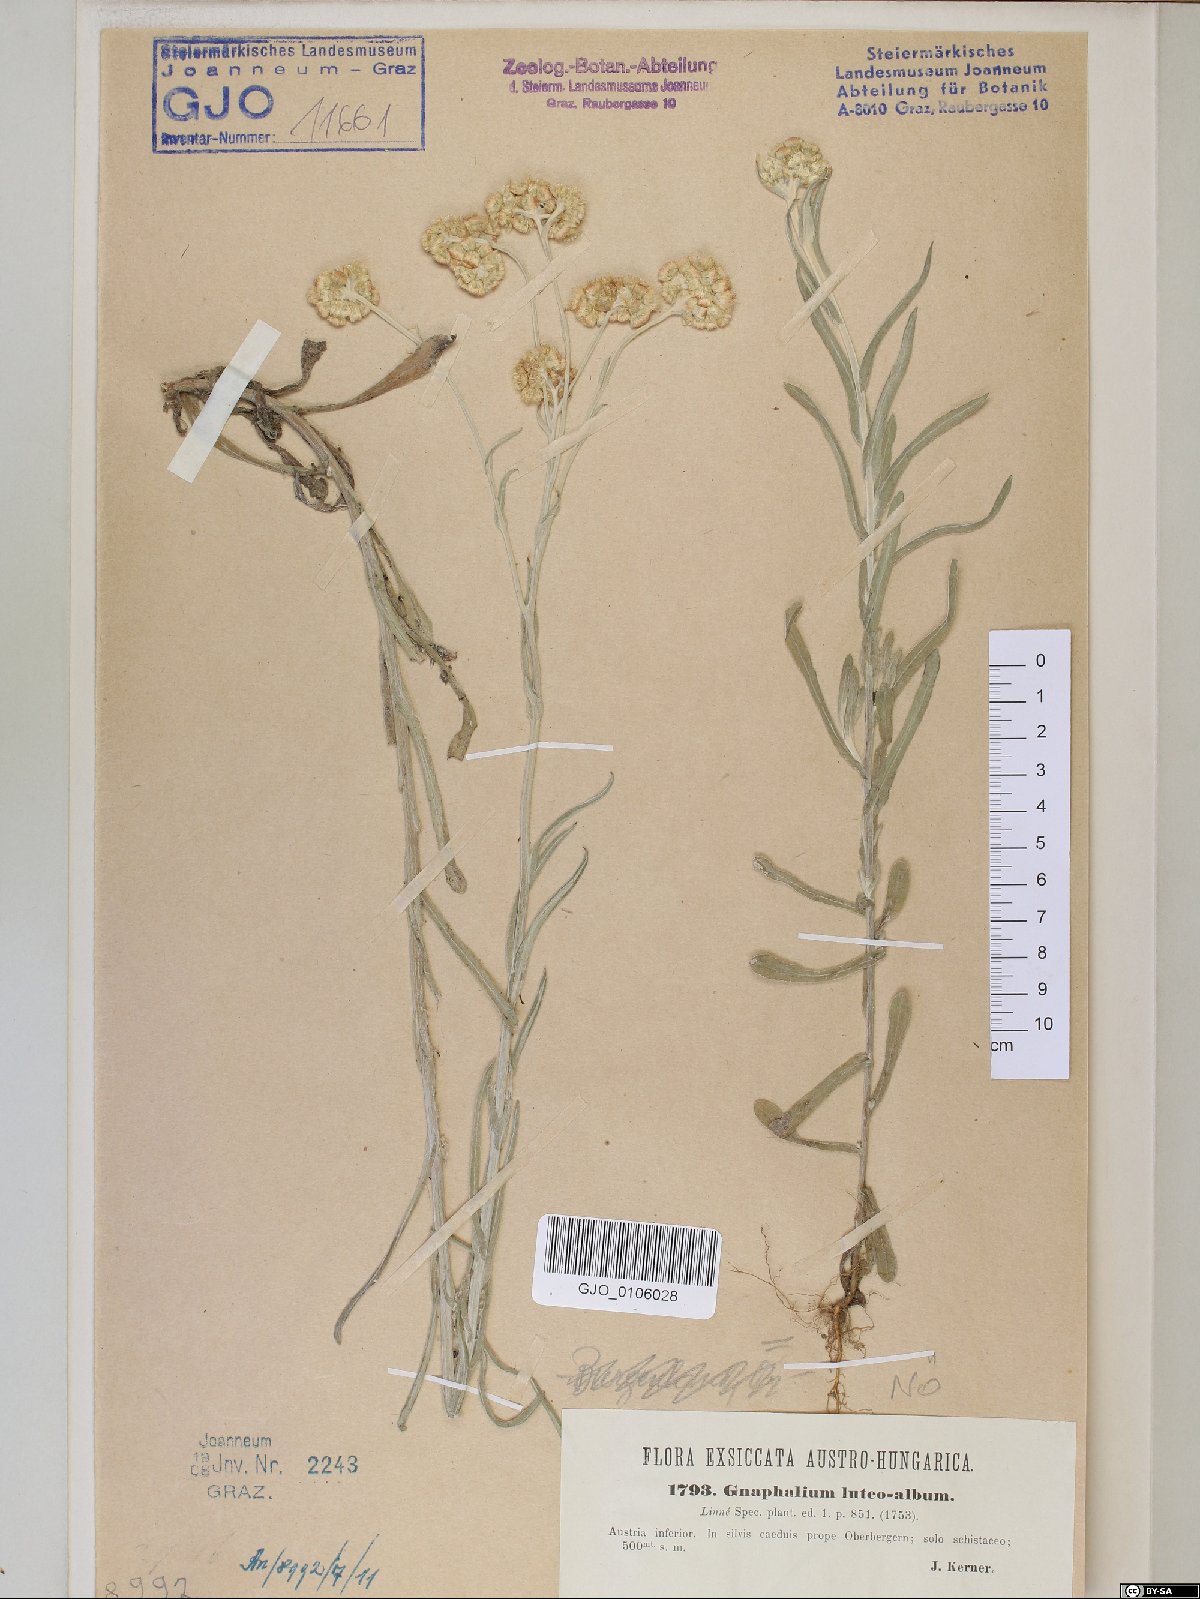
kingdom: Plantae
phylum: Tracheophyta
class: Magnoliopsida
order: Asterales
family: Asteraceae
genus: Helichrysum
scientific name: Helichrysum luteoalbum
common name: Daisy
